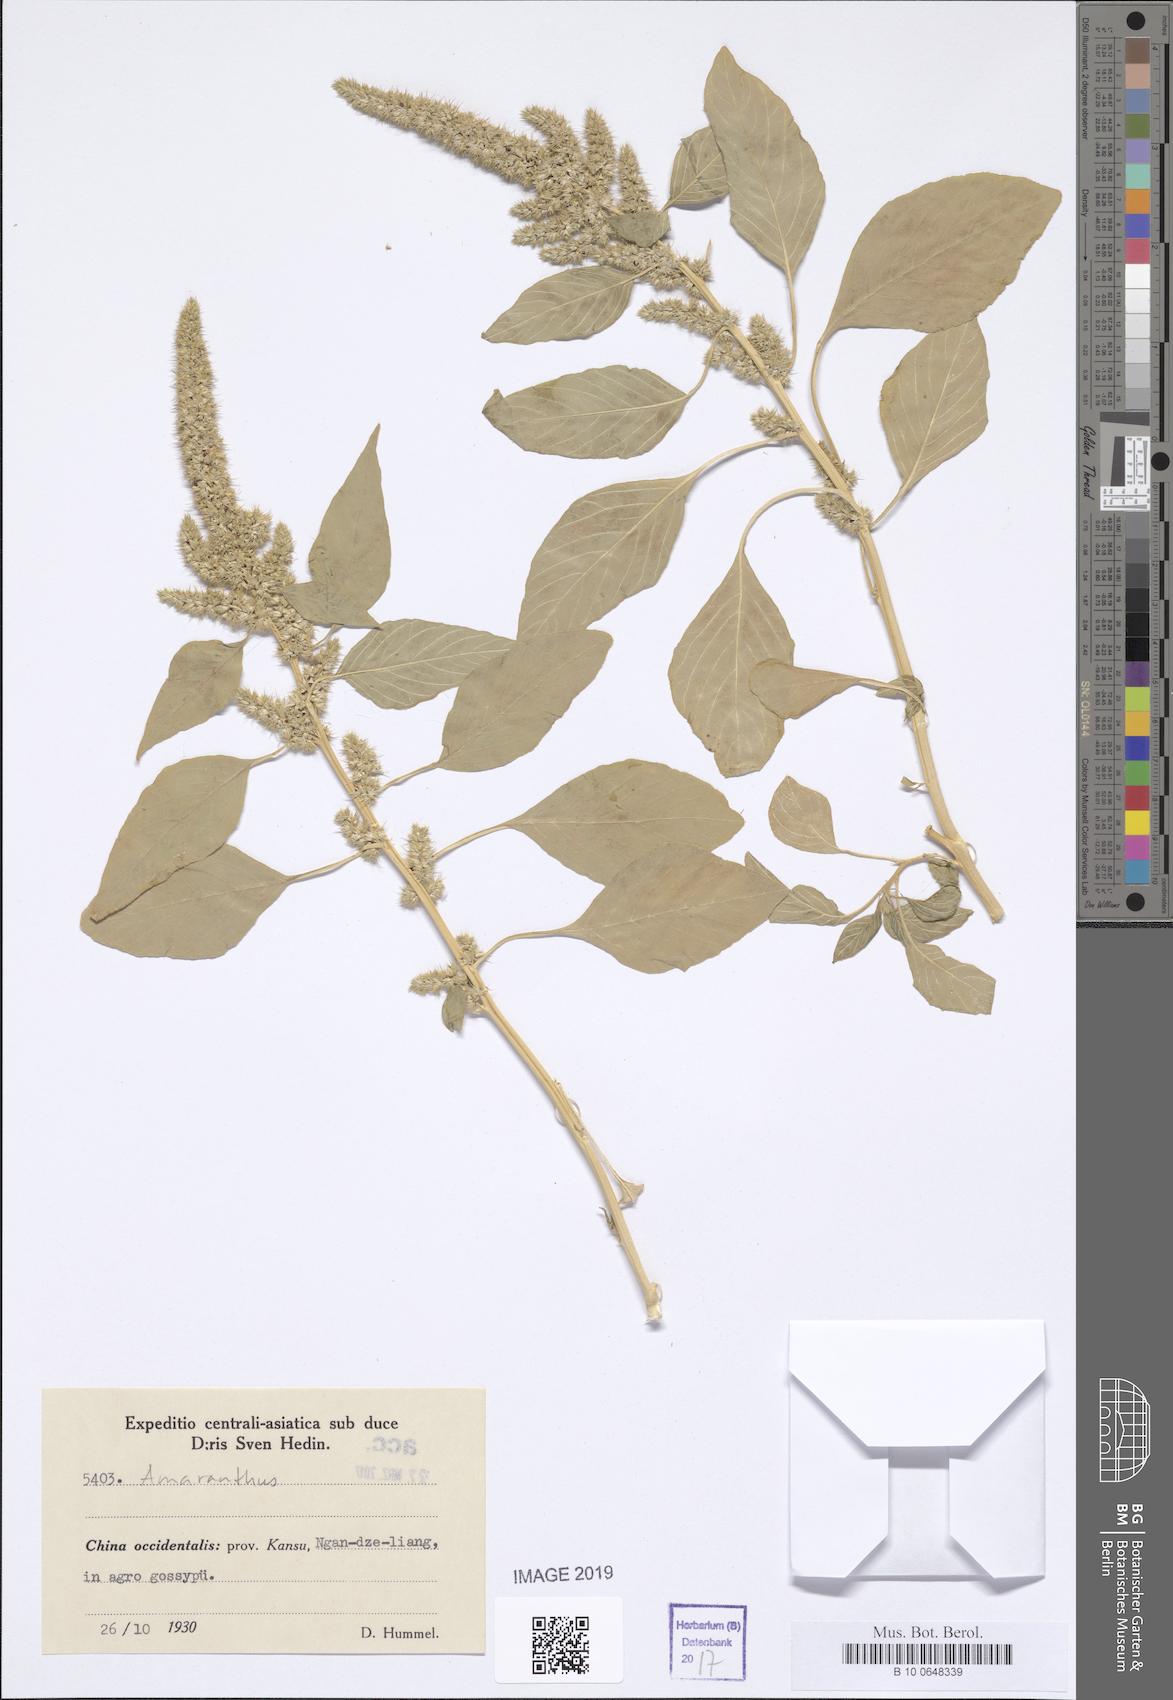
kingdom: Plantae
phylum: Tracheophyta
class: Magnoliopsida
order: Caryophyllales
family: Amaranthaceae
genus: Amaranthus
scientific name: Amaranthus
